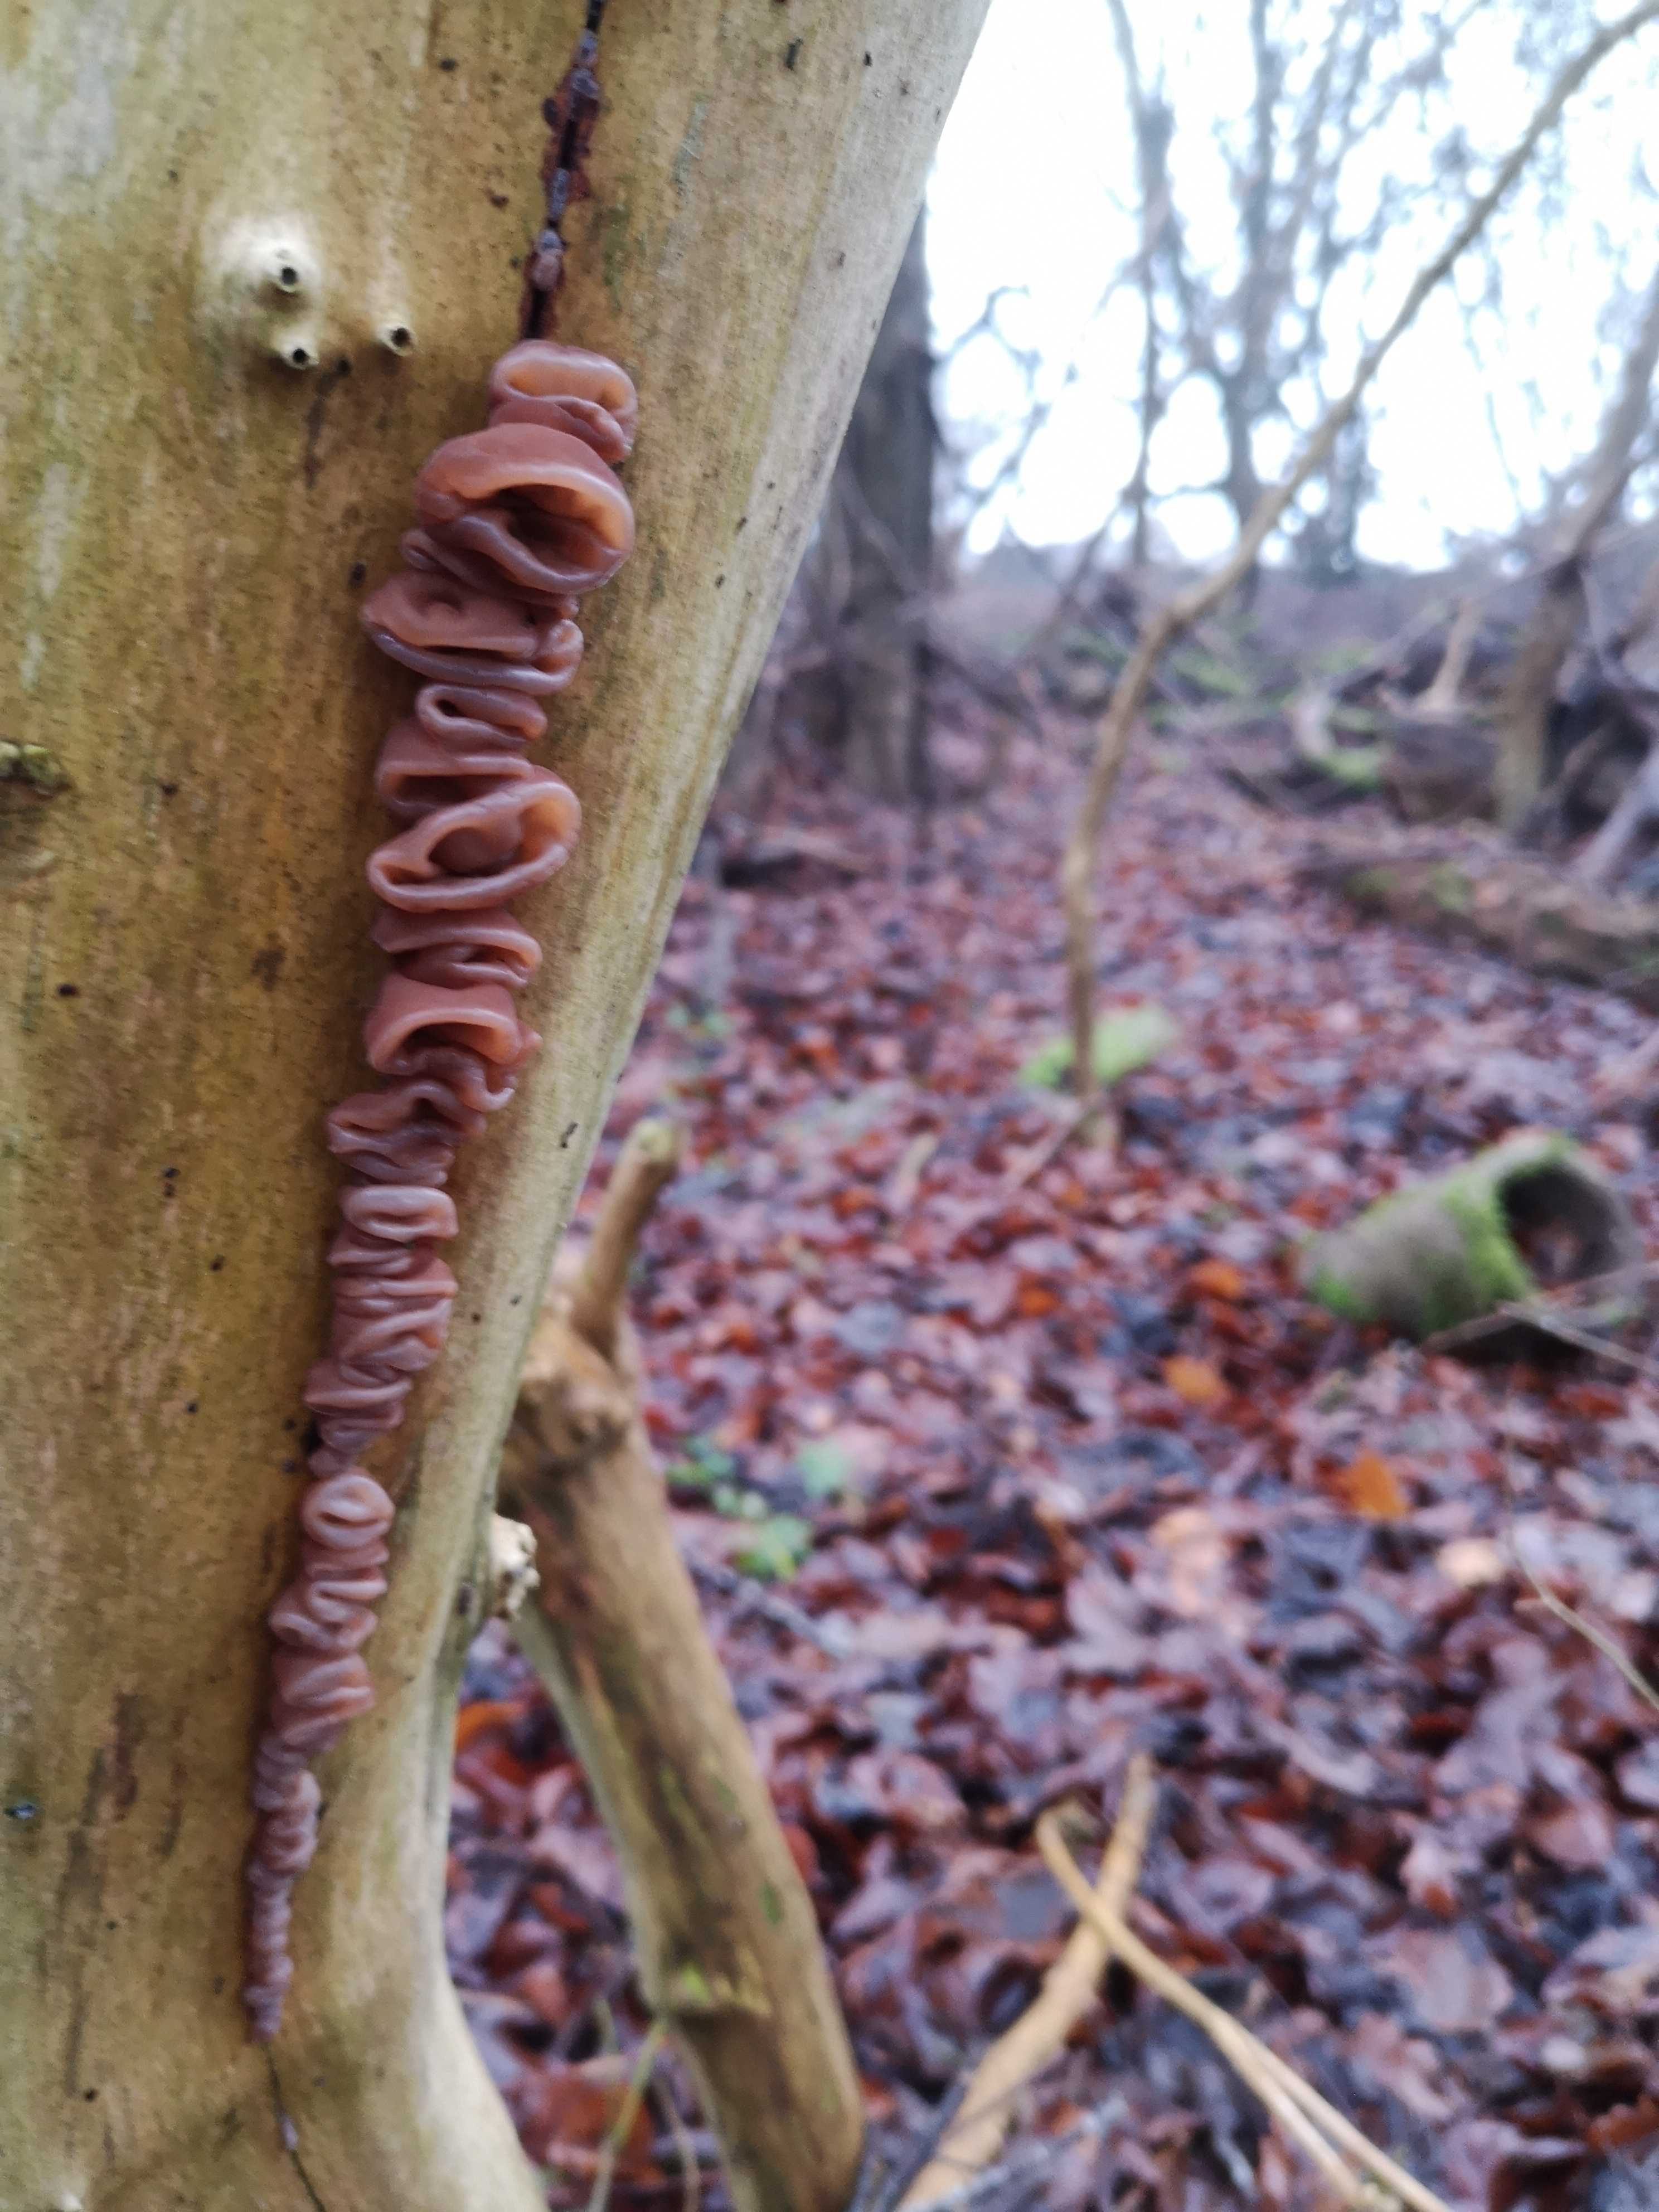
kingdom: Fungi
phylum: Basidiomycota
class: Agaricomycetes
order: Auriculariales
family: Auriculariaceae
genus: Auricularia
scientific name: Auricularia auricula-judae
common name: almindelig judasøre
